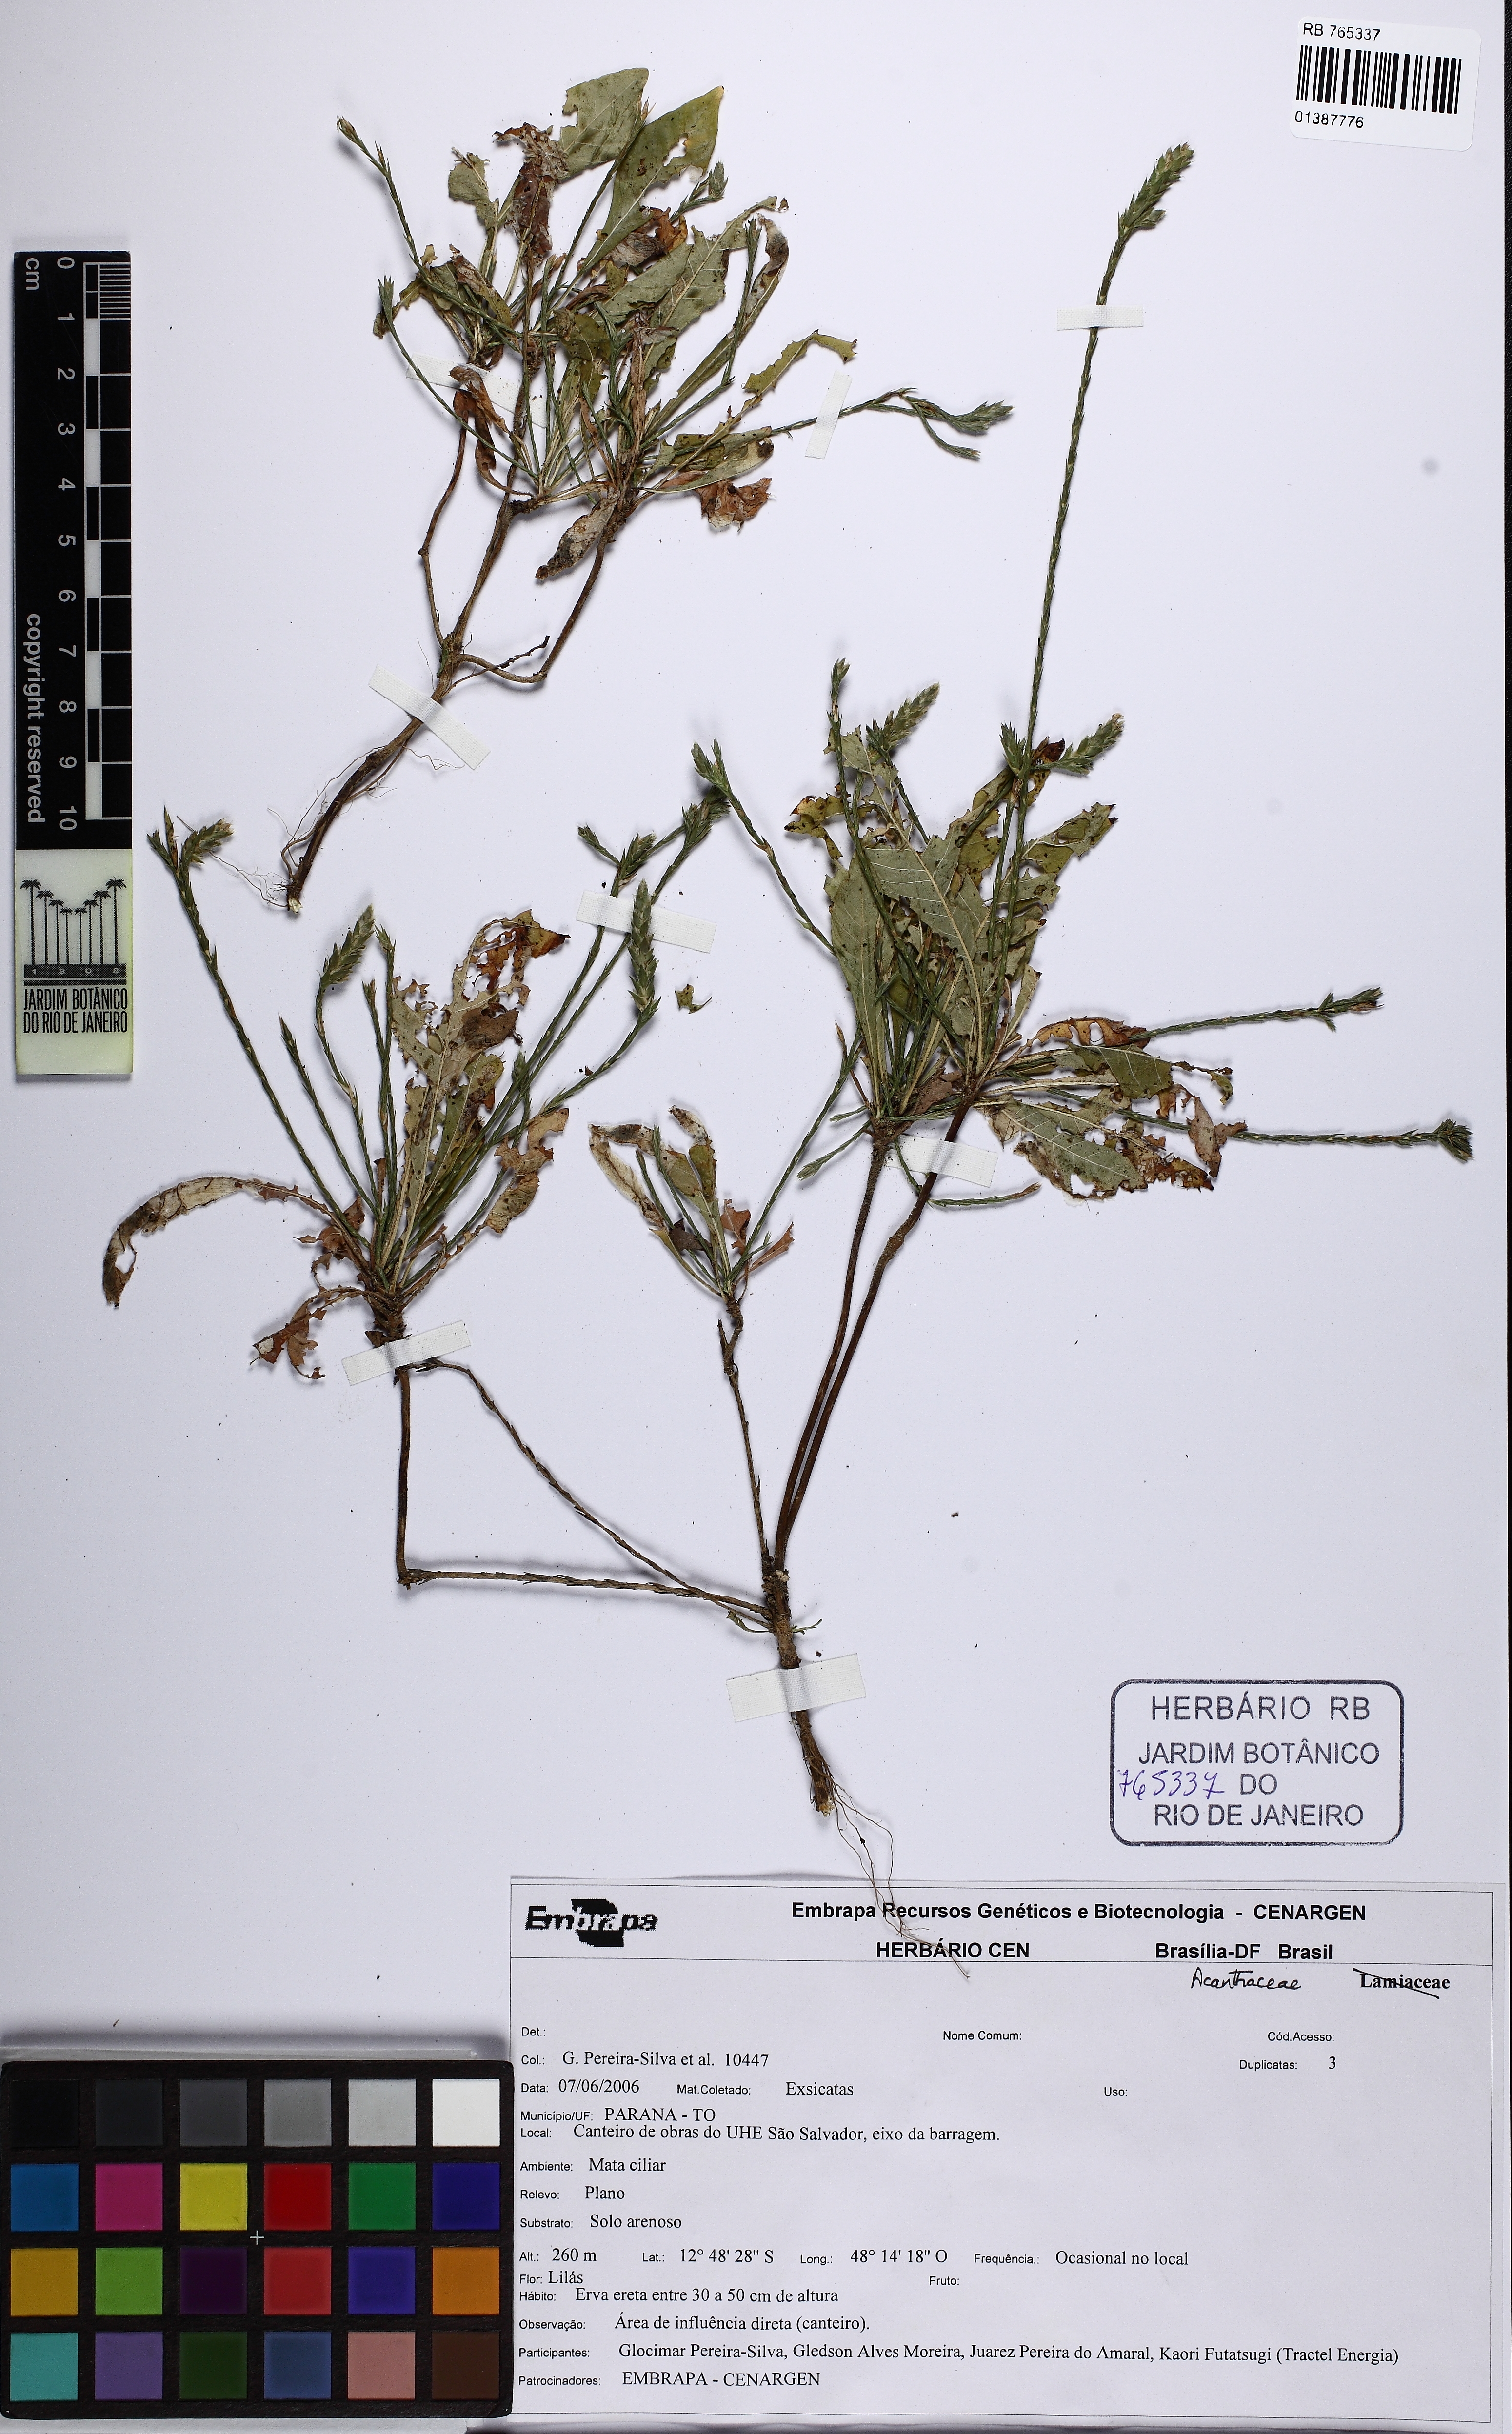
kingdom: Plantae
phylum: Tracheophyta
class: Magnoliopsida
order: Lamiales
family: Acanthaceae
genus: Elytraria
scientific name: Elytraria imbricata
